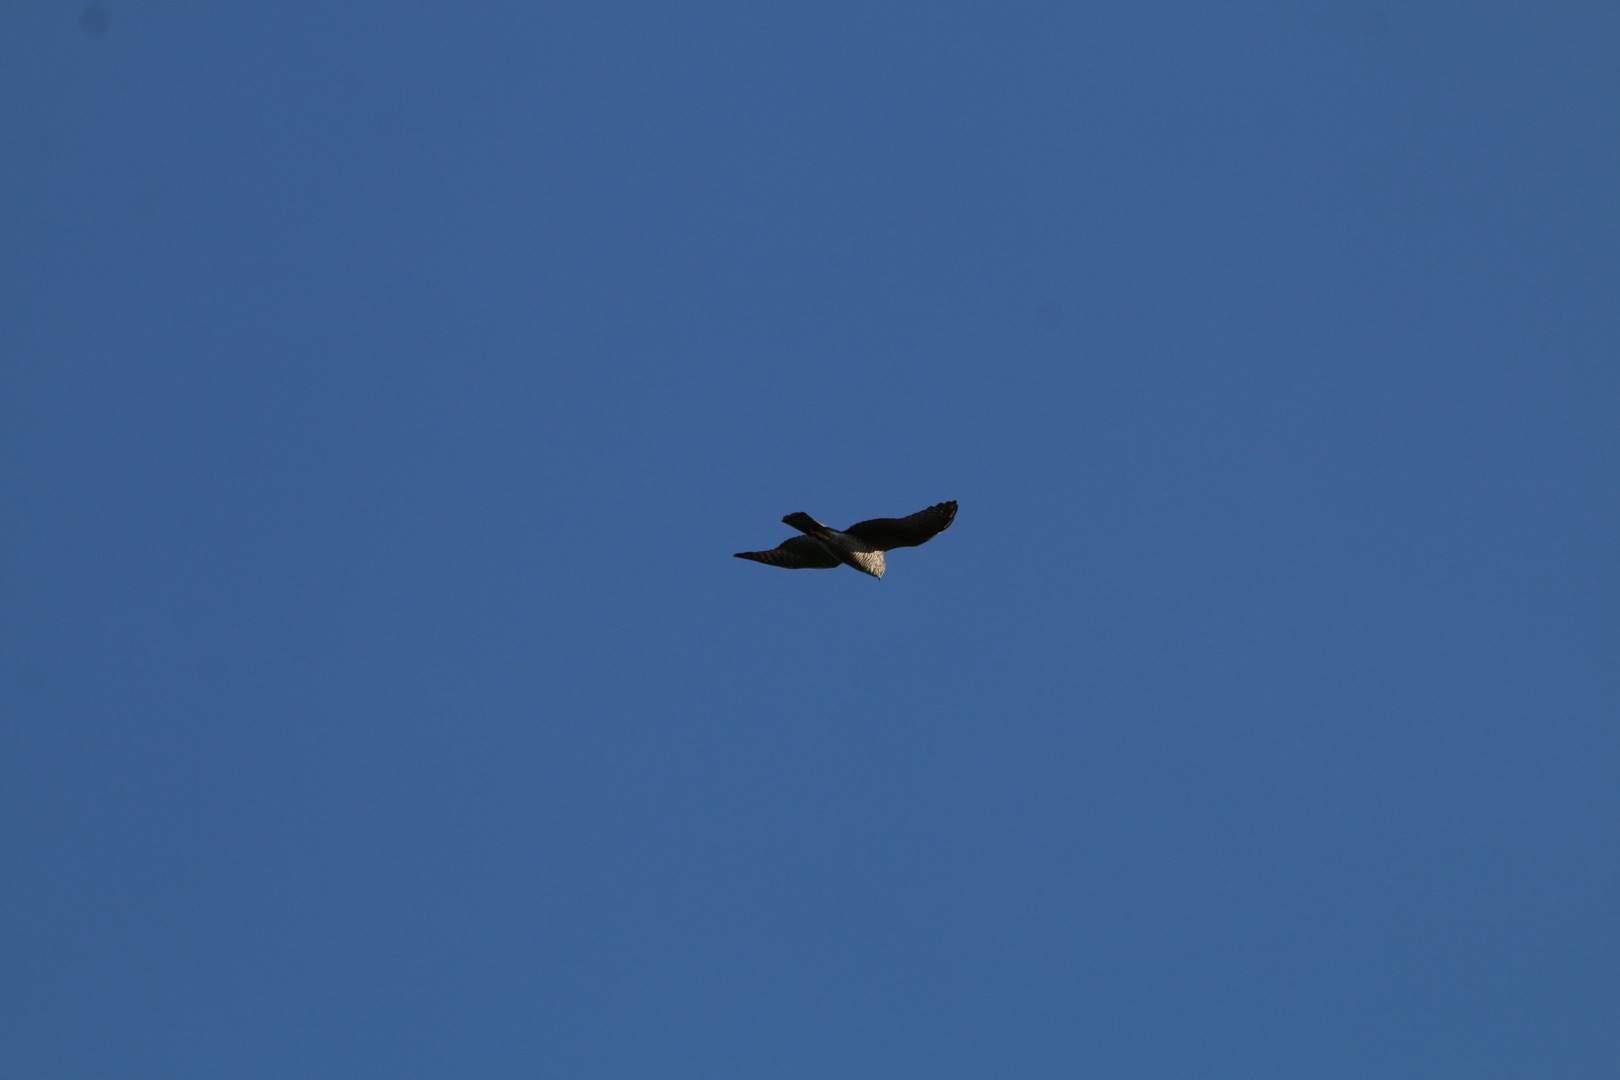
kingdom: Animalia
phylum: Chordata
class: Aves
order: Accipitriformes
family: Accipitridae
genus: Accipiter
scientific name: Accipiter nisus
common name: Spurvehøg
